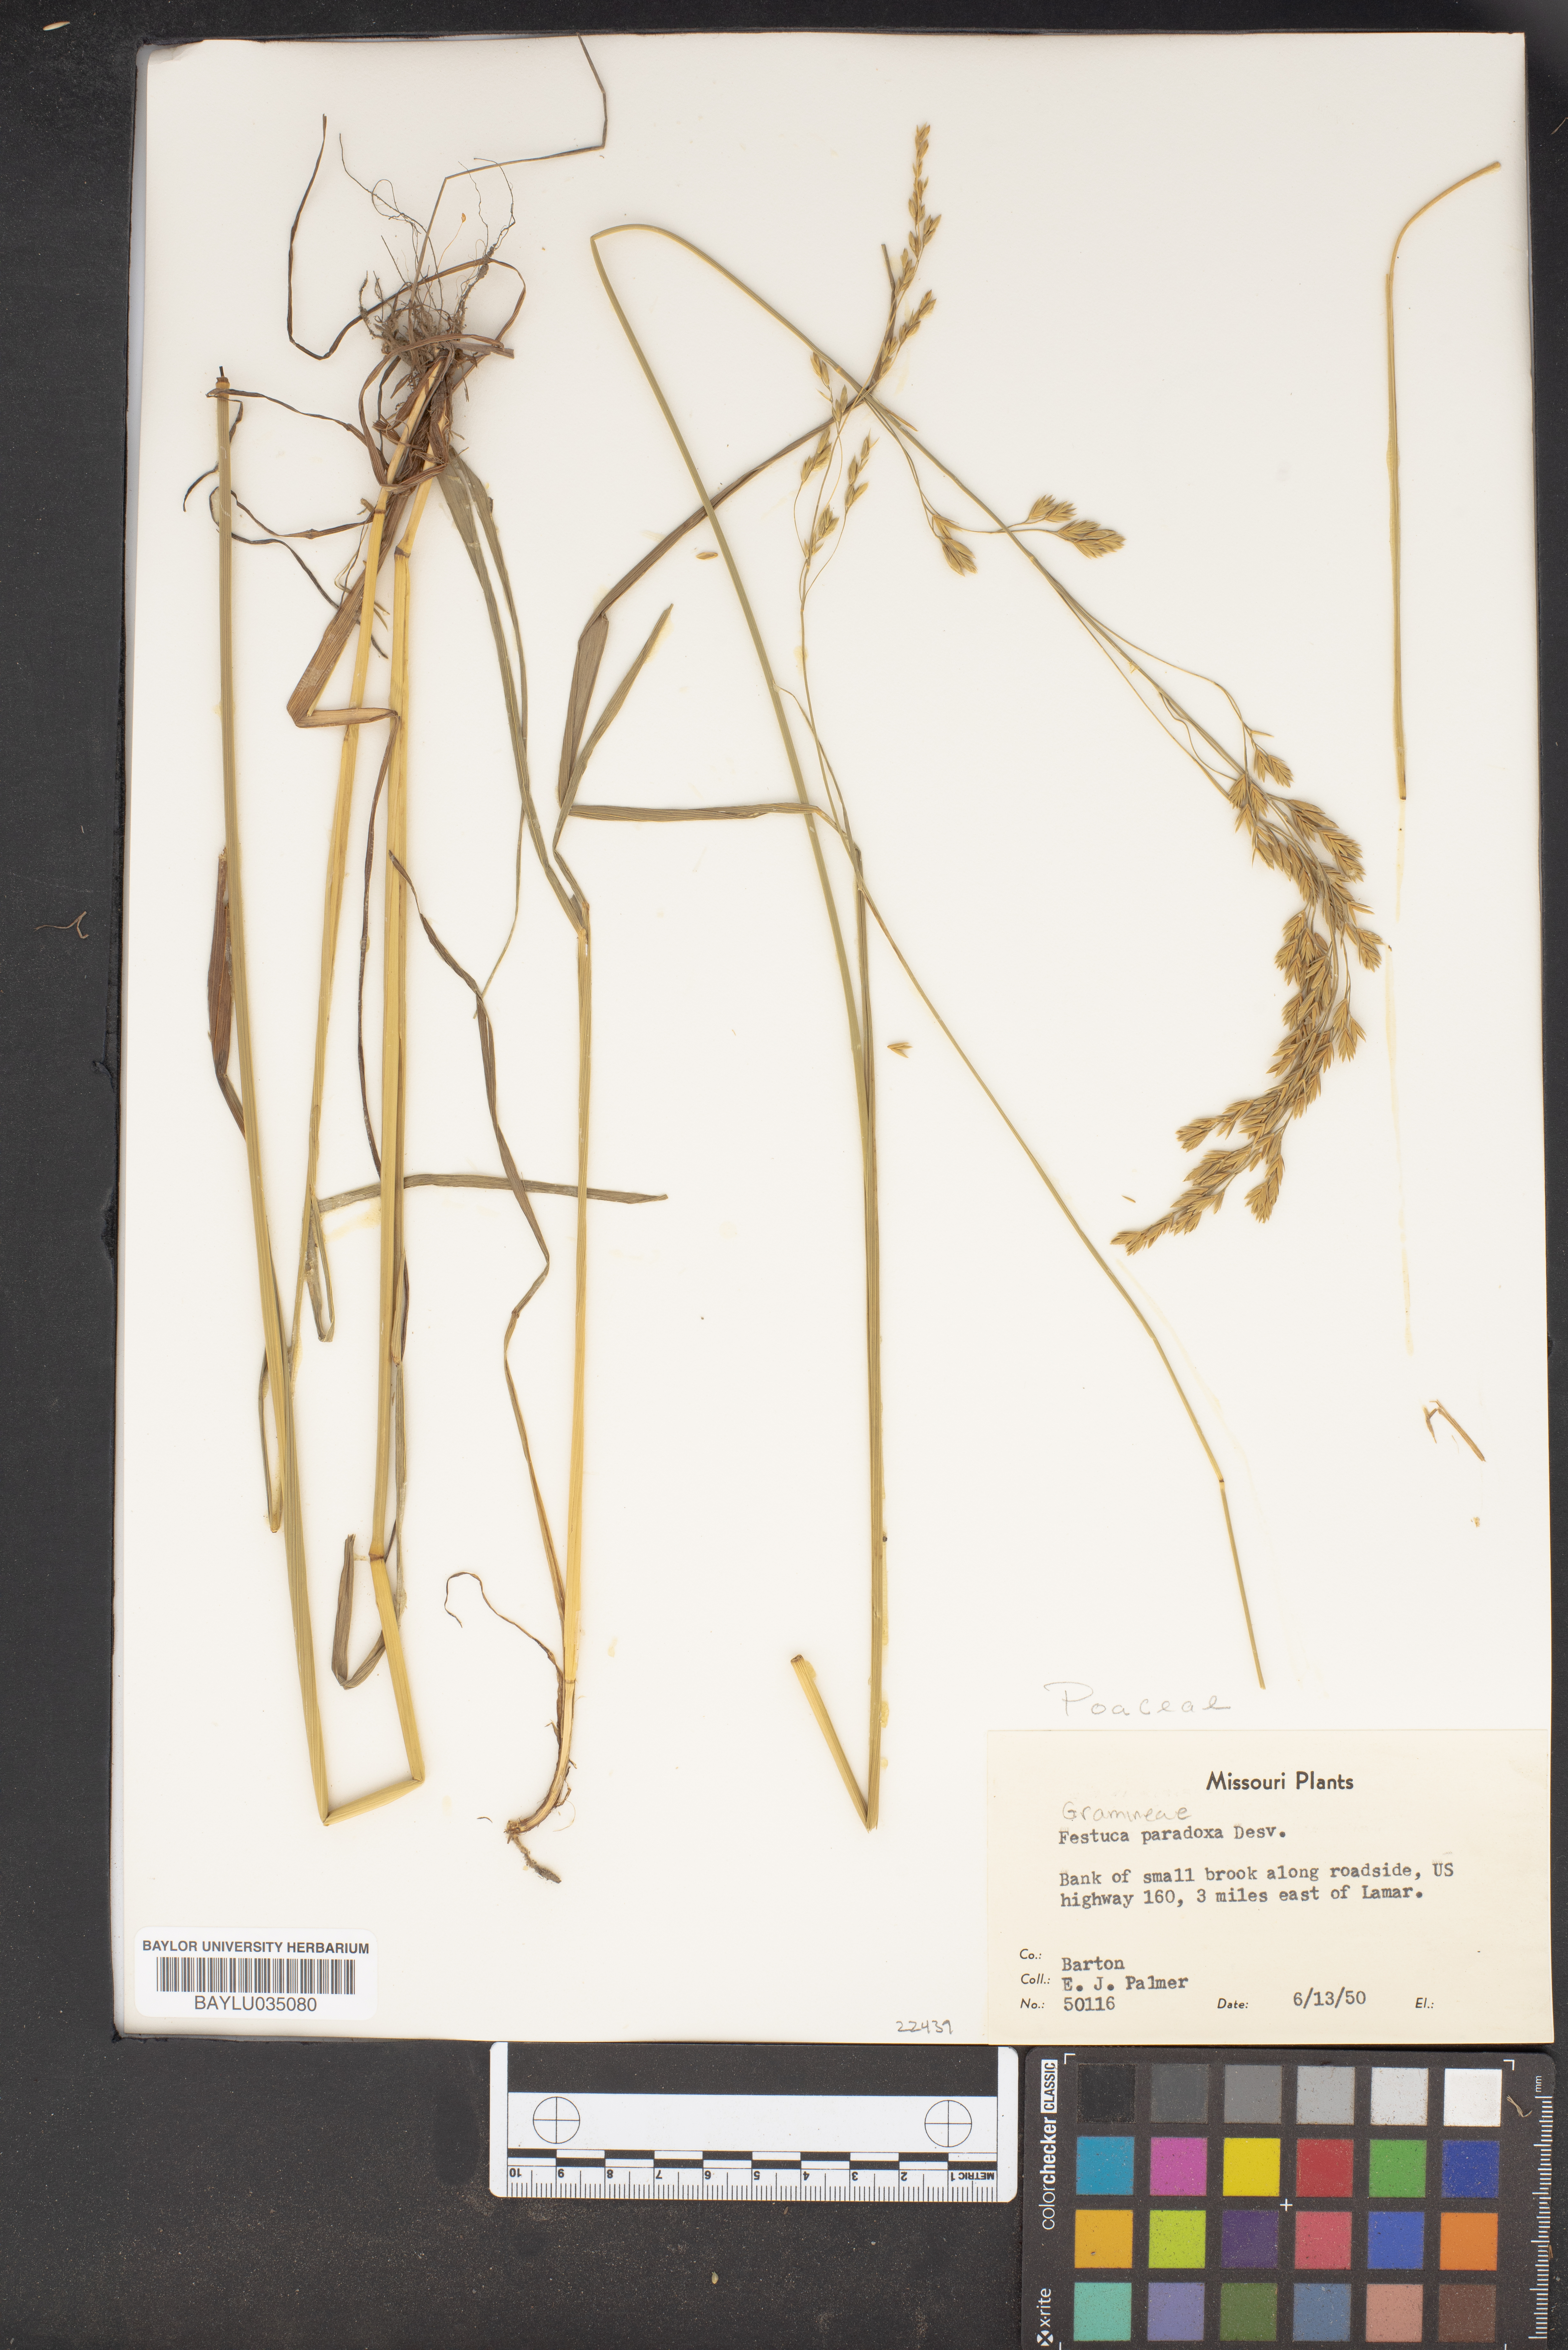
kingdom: Plantae
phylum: Tracheophyta
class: Liliopsida
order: Poales
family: Poaceae
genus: Festuca
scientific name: Festuca paradoxa
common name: Cluster fescue
